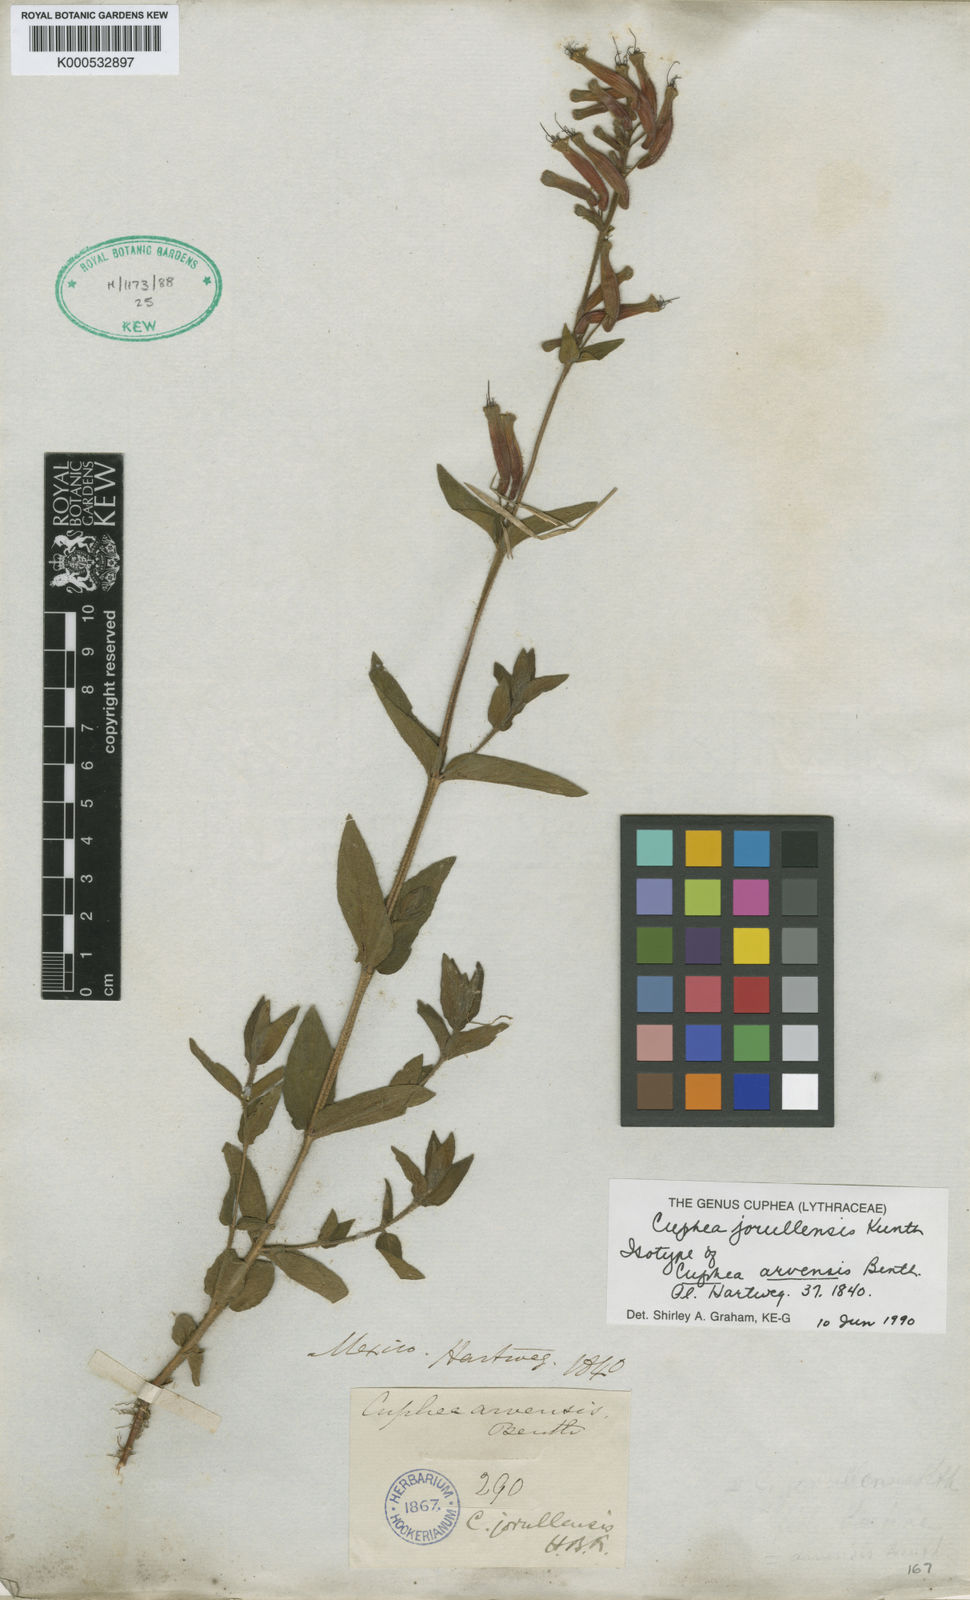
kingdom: Plantae
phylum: Tracheophyta
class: Magnoliopsida
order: Myrtales
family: Lythraceae
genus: Cuphea
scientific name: Cuphea jorullensis
